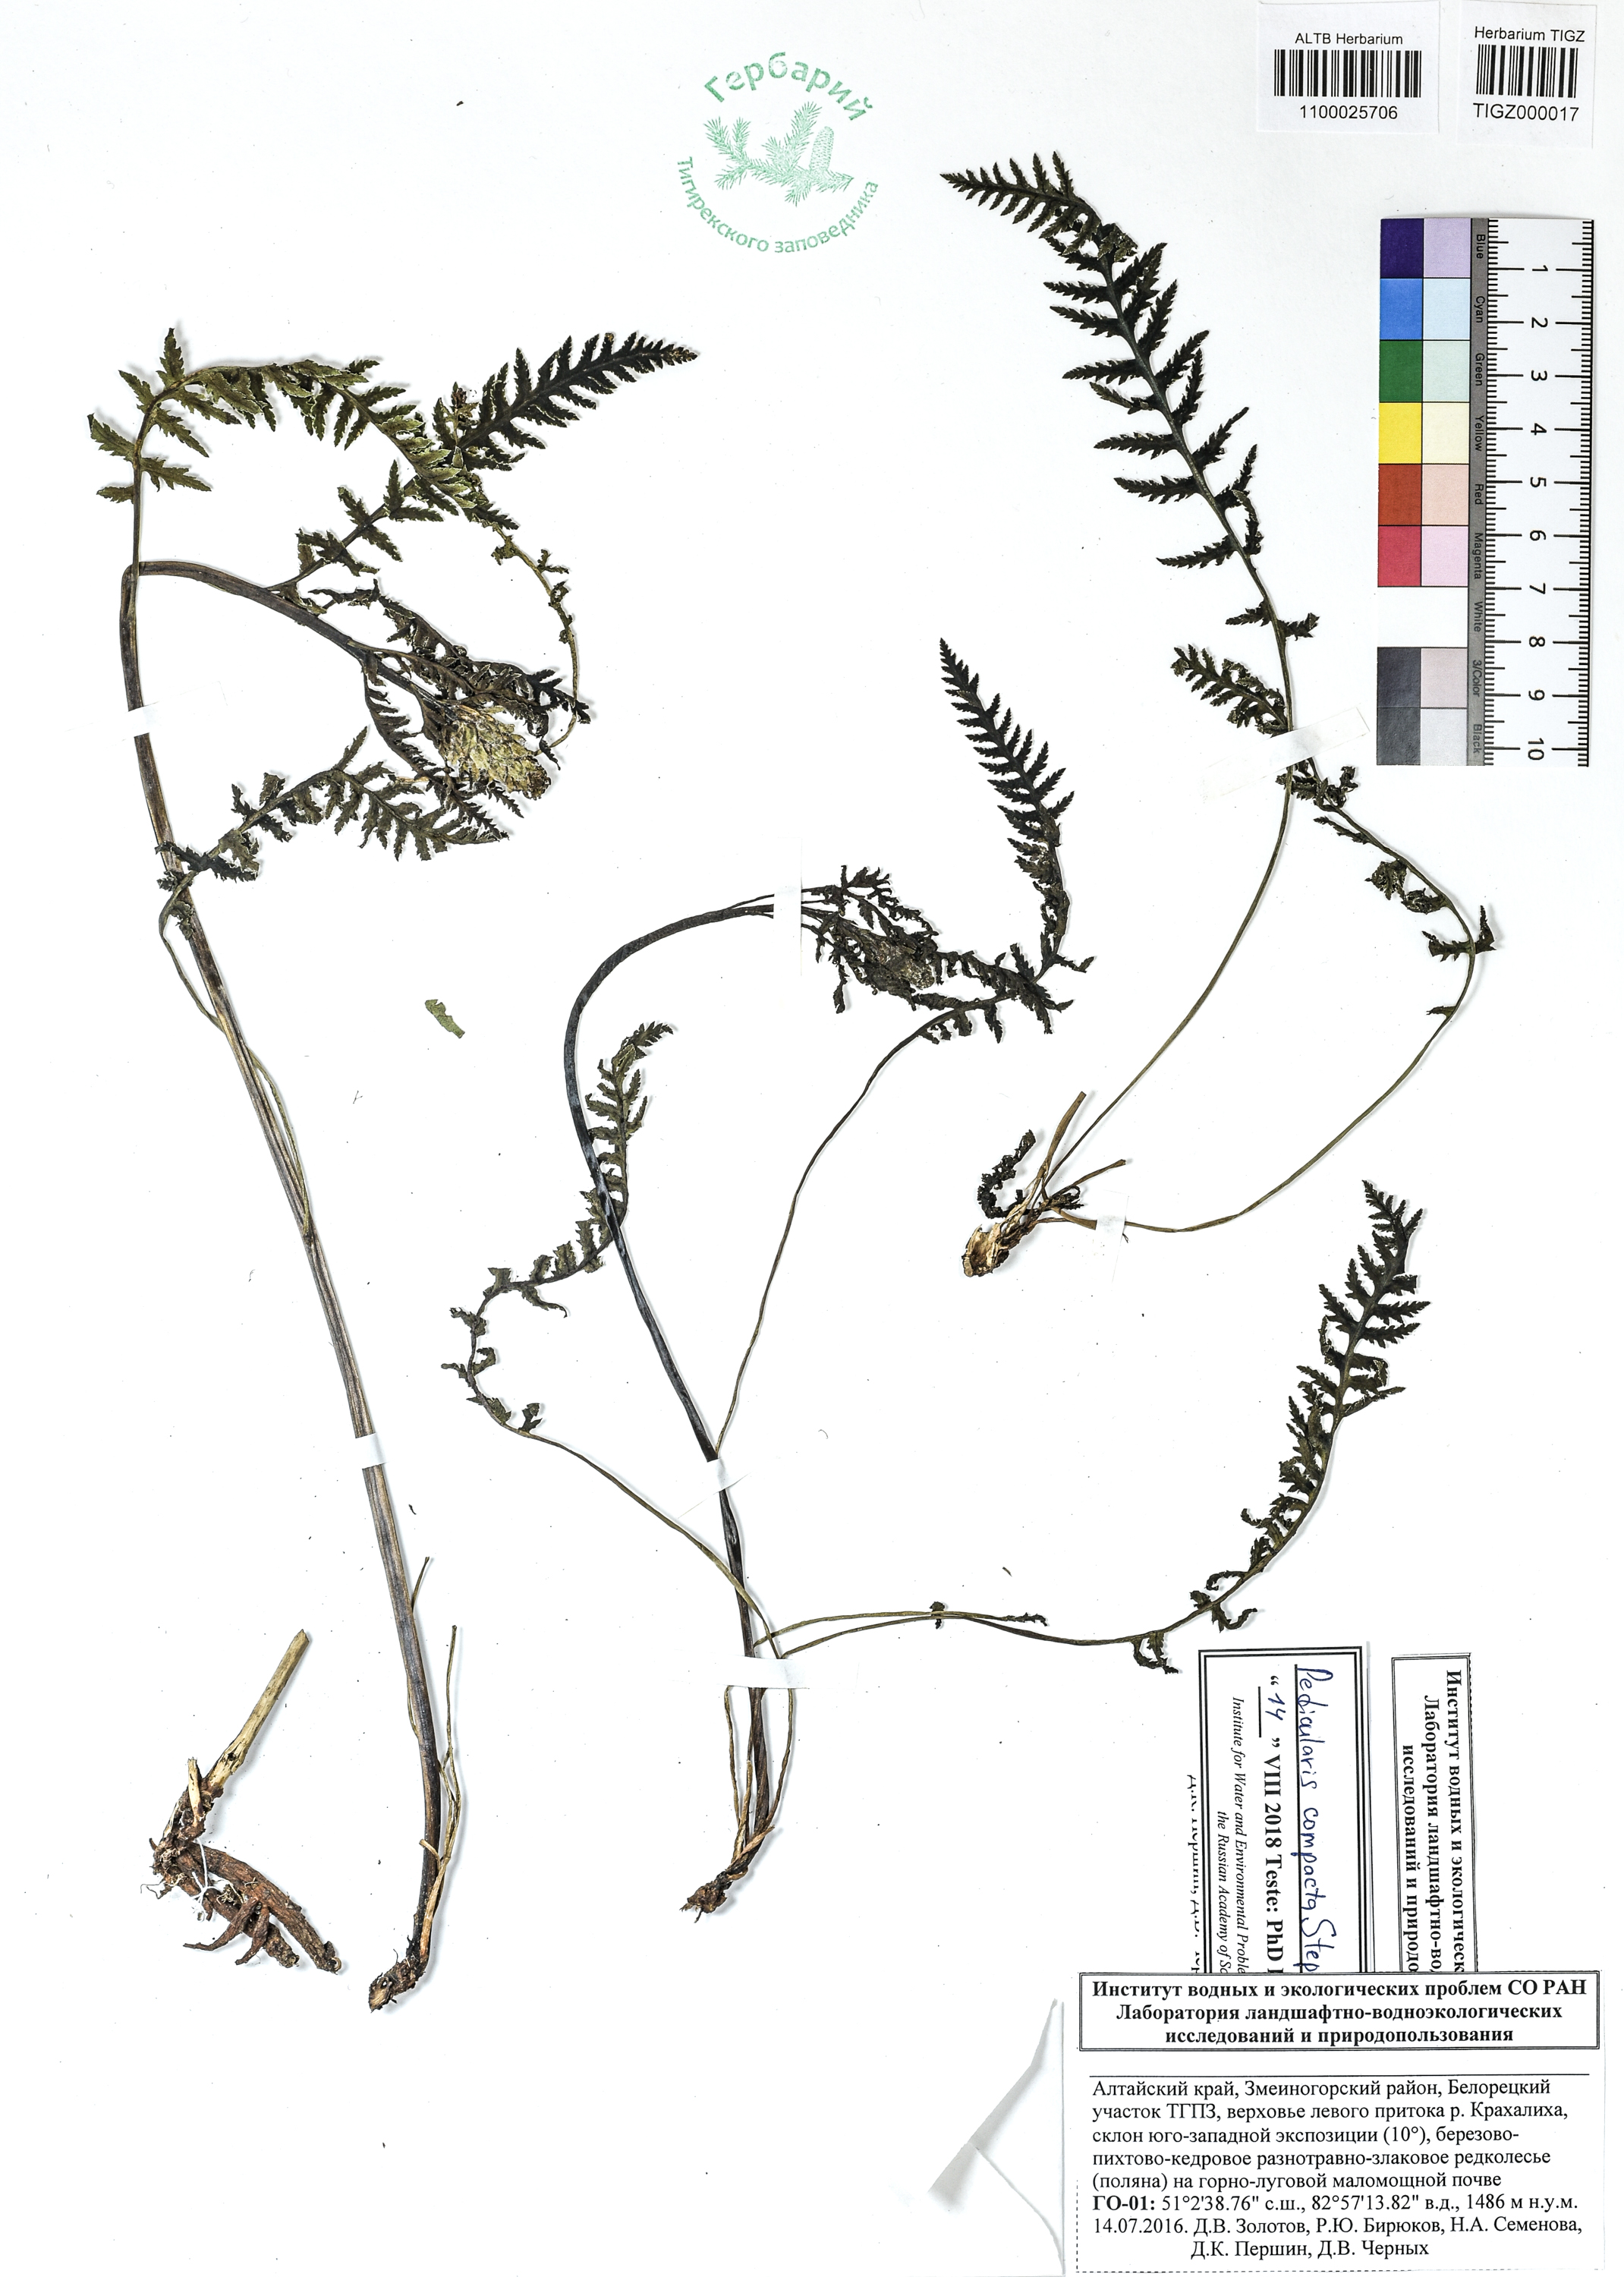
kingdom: Plantae
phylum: Tracheophyta
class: Magnoliopsida
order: Lamiales
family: Orobanchaceae
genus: Pedicularis
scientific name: Pedicularis compacta
